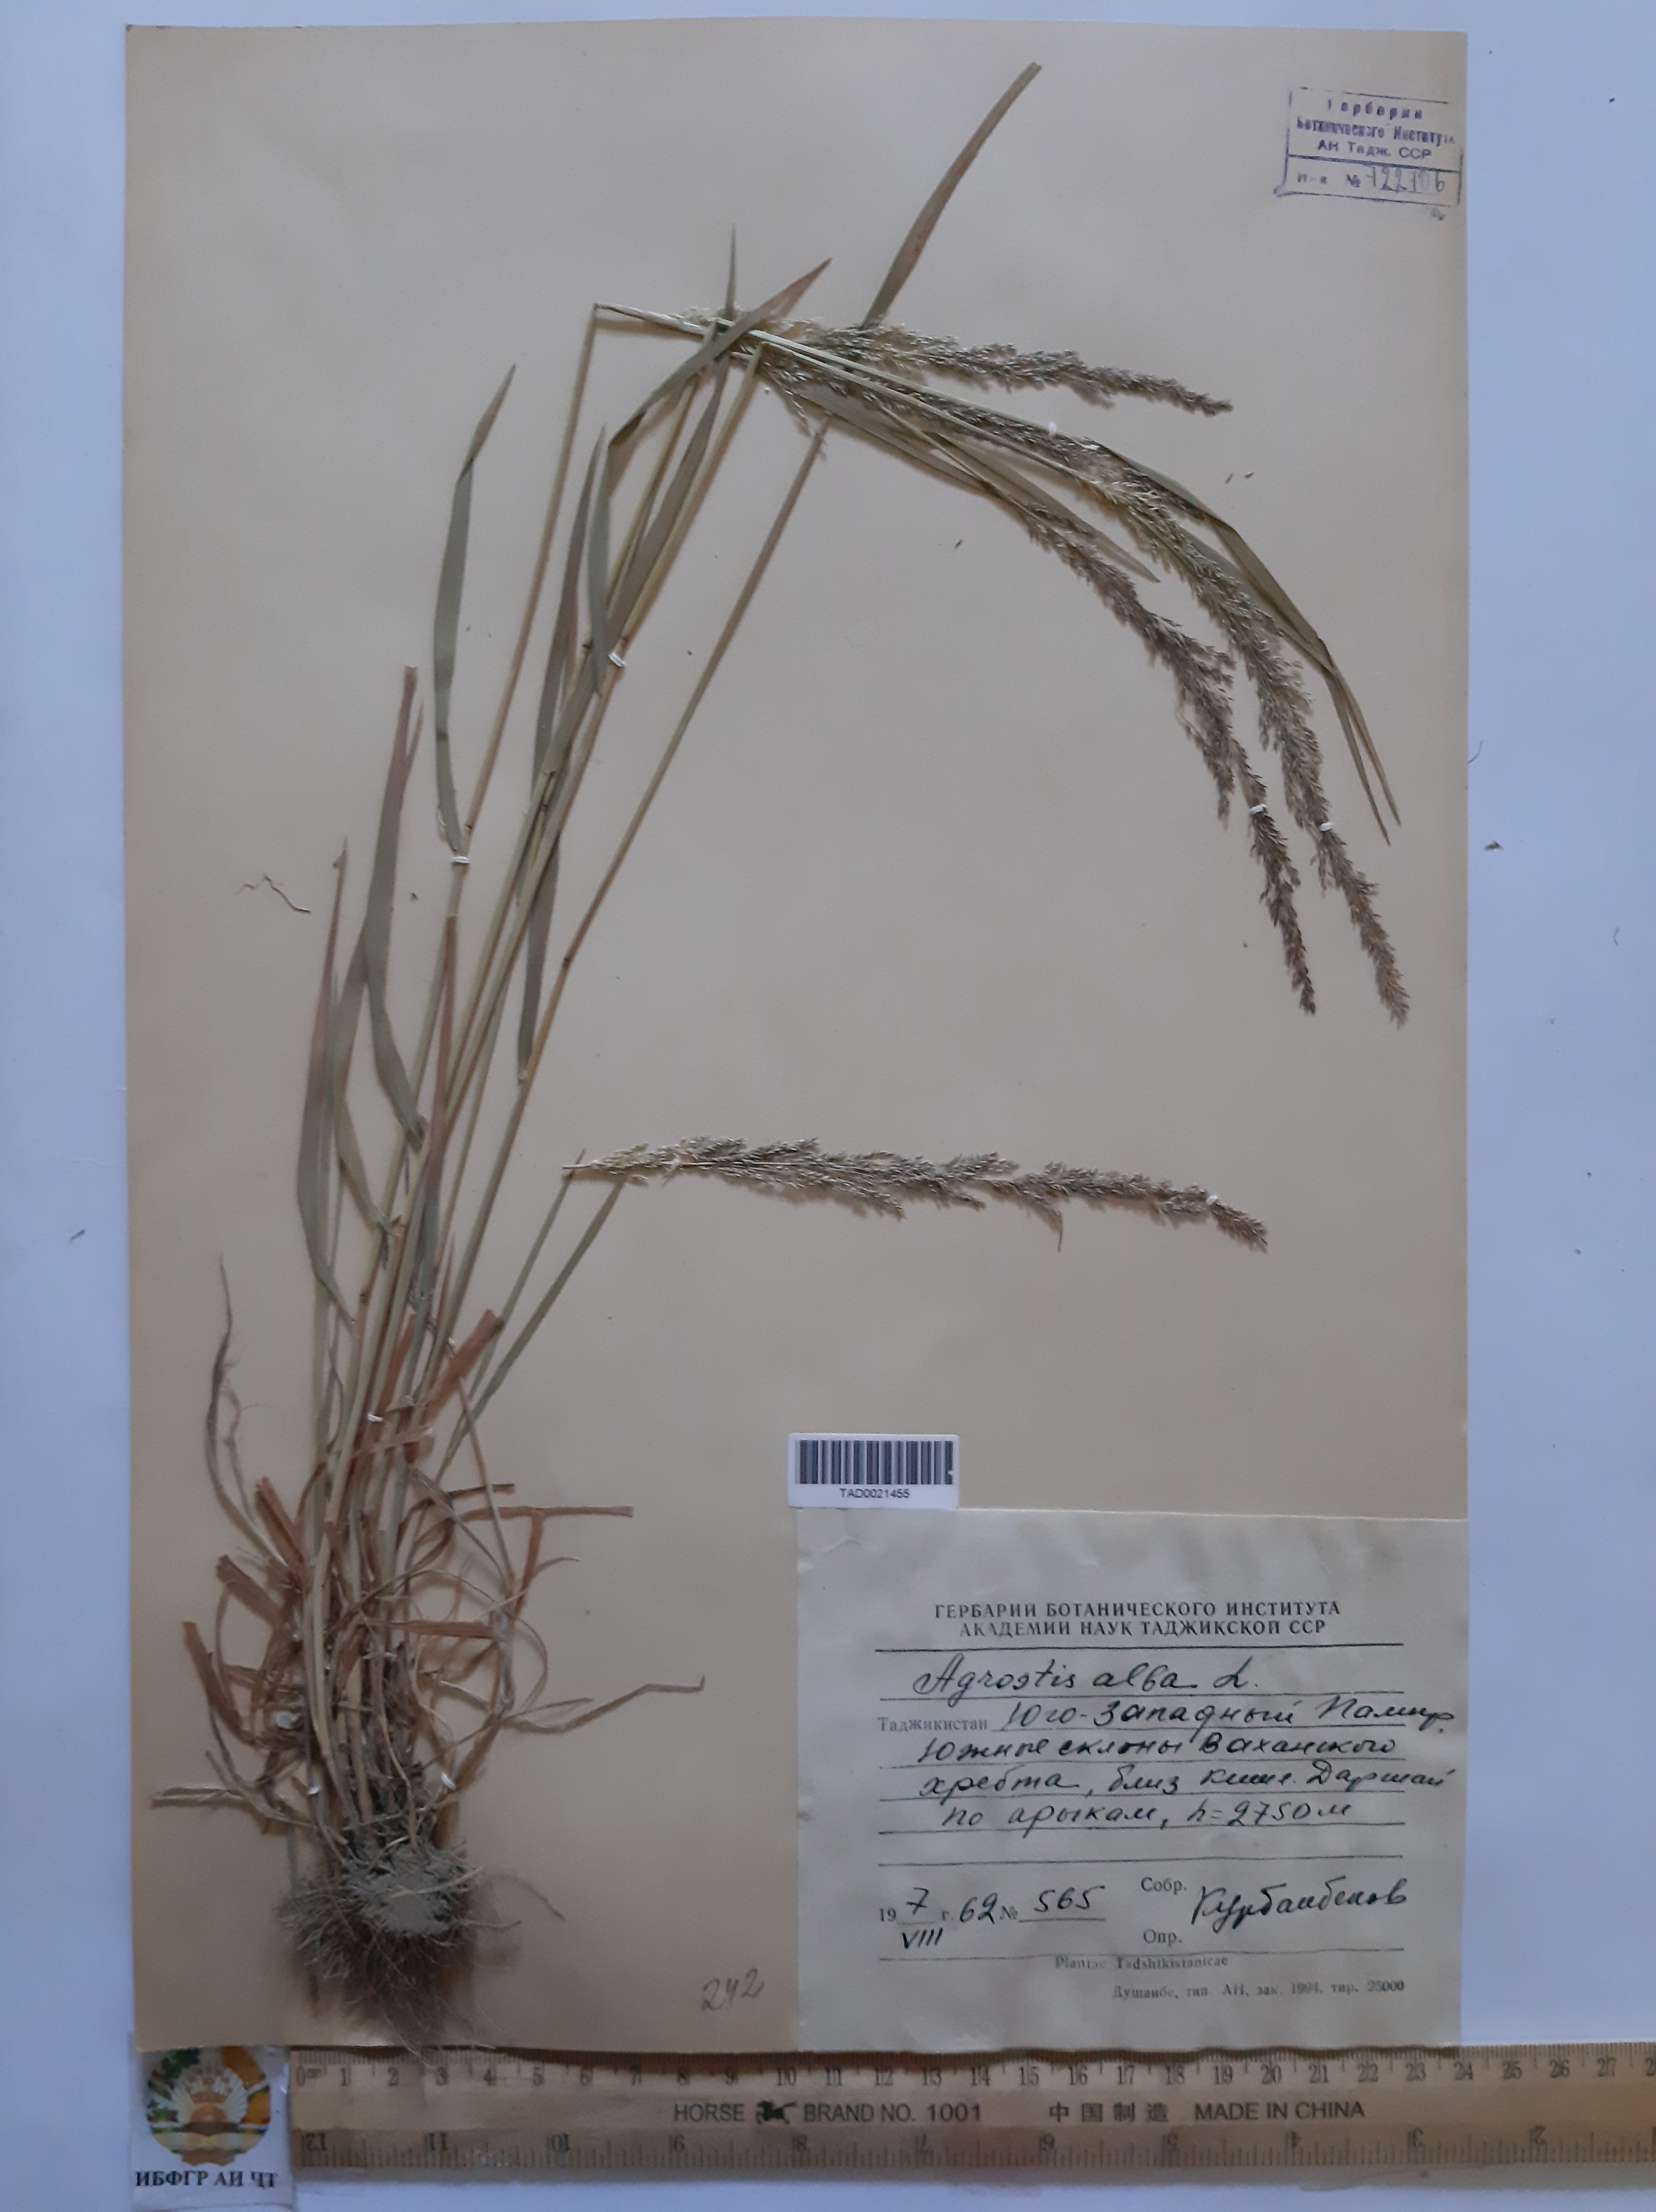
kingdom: Plantae
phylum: Tracheophyta
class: Liliopsida
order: Poales
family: Poaceae
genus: Poa
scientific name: Poa nemoralis
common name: Wood bluegrass
